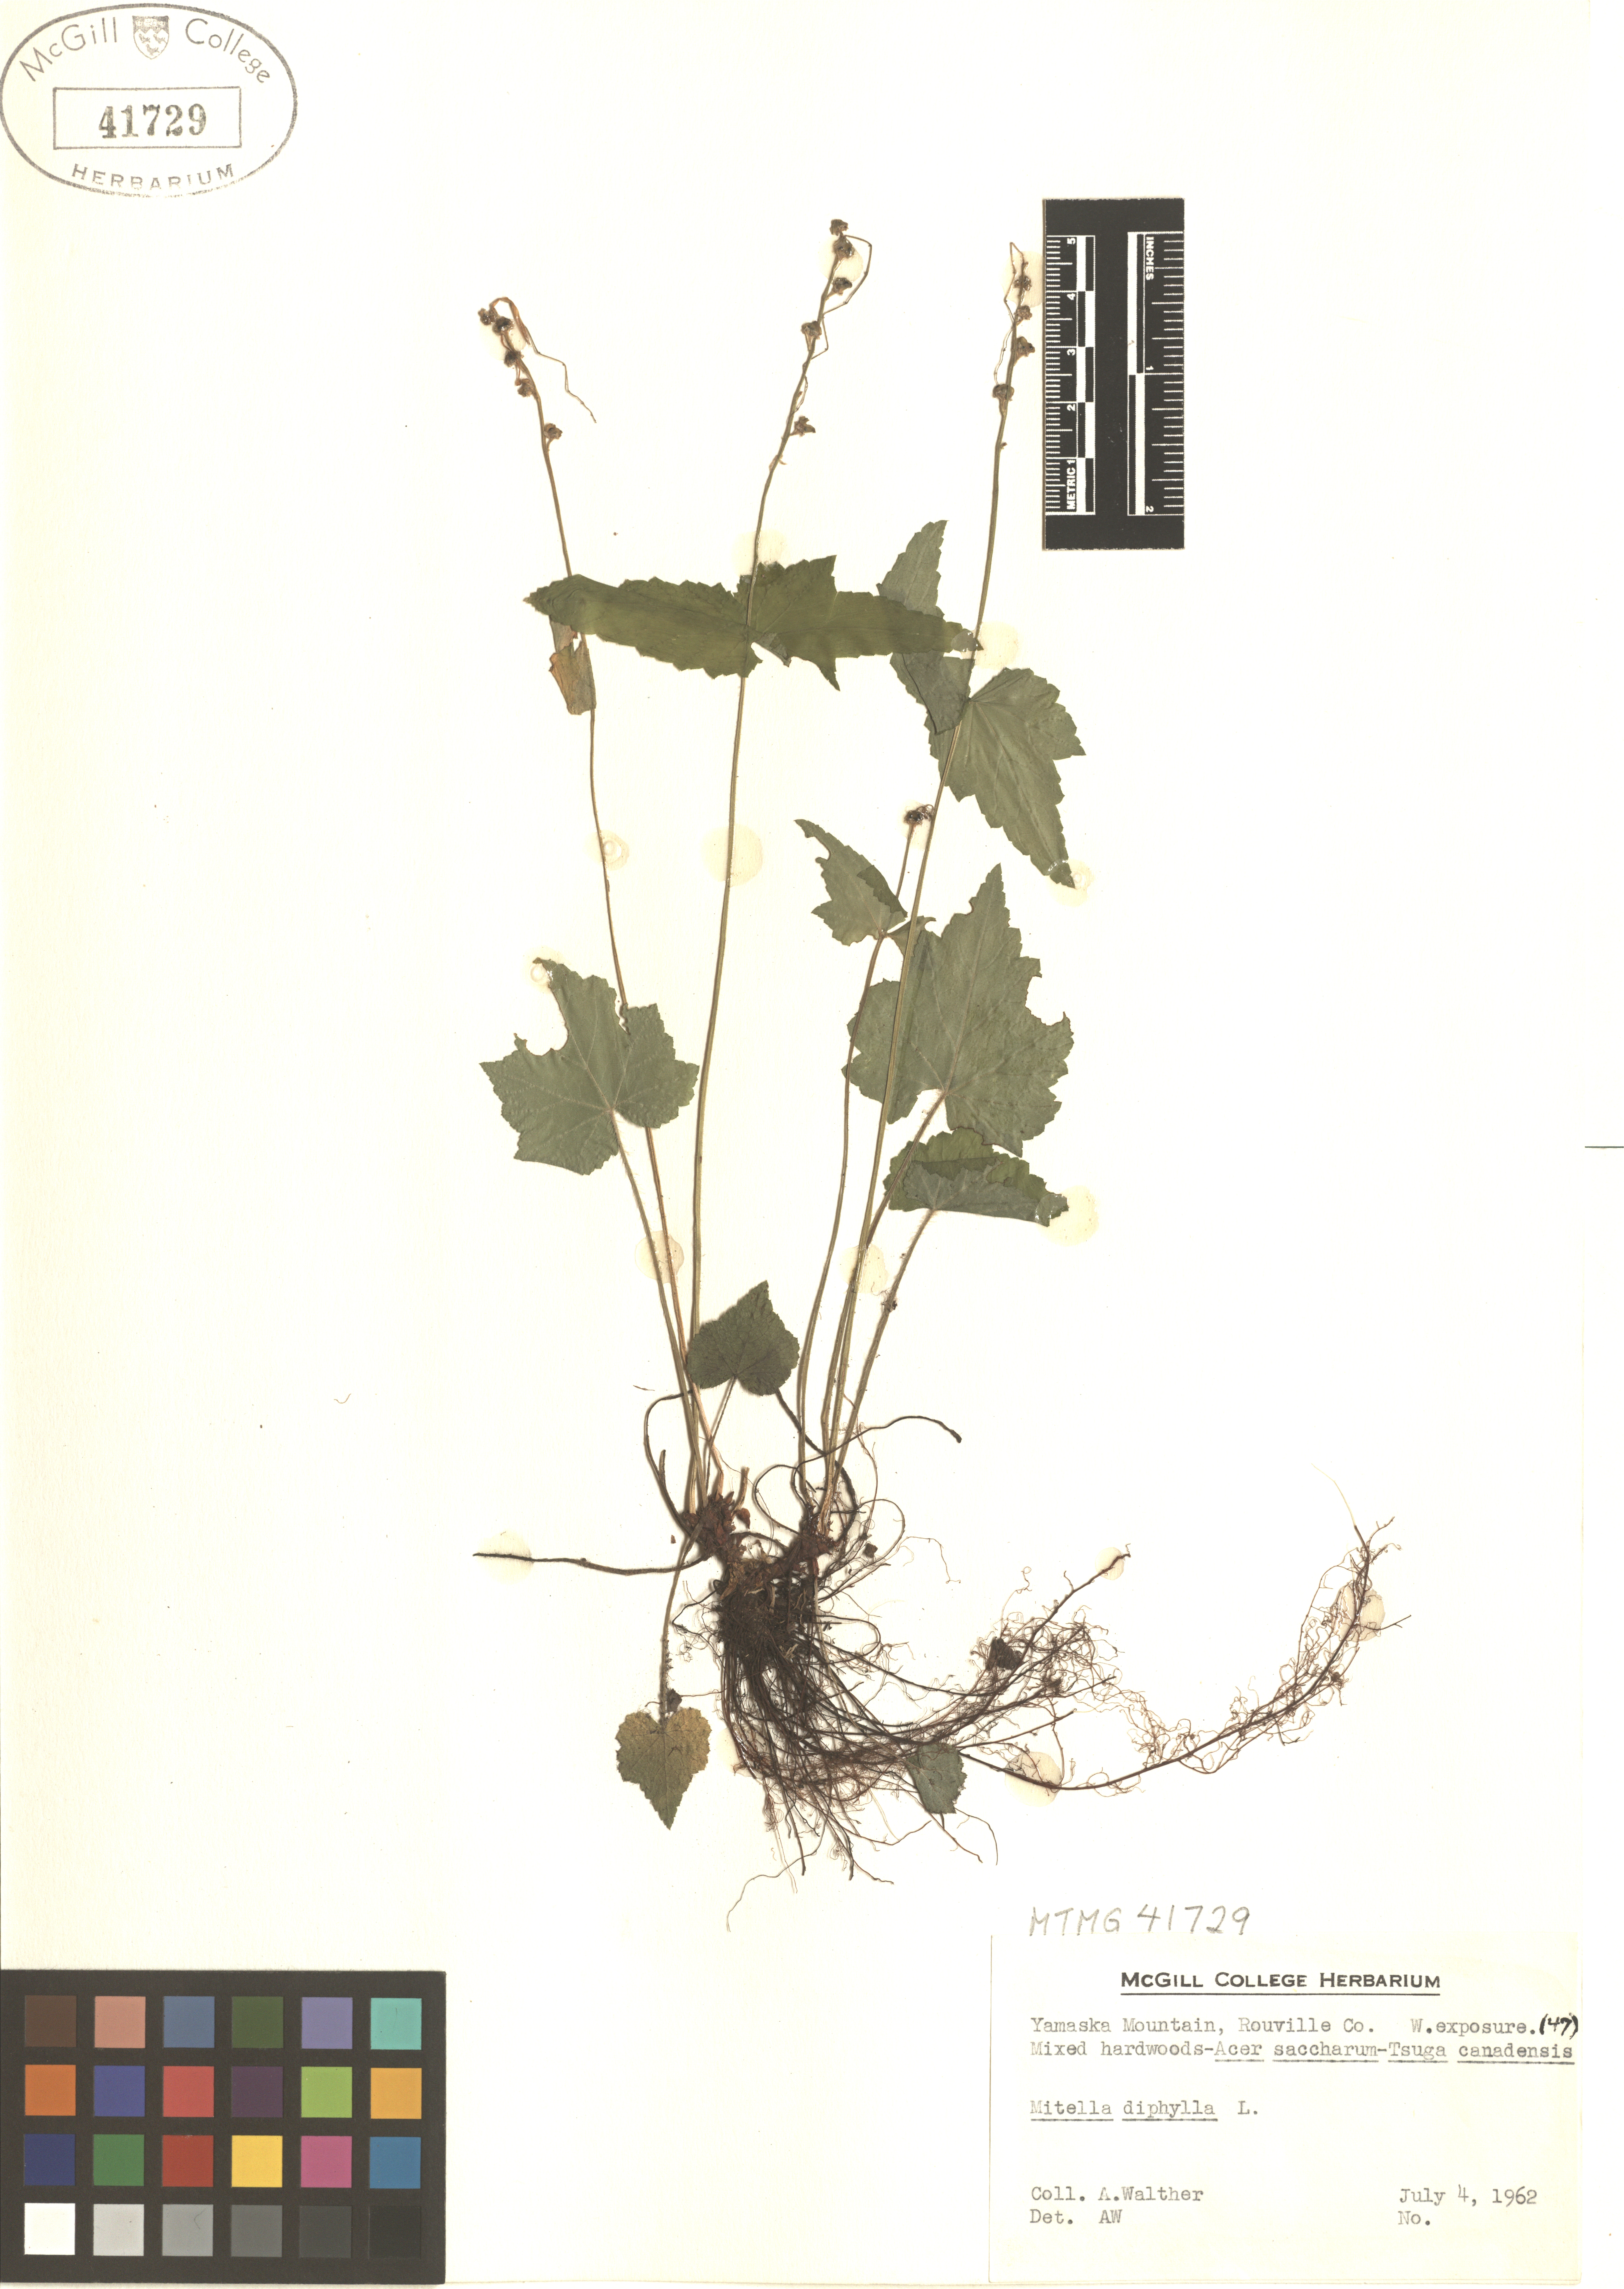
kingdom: Plantae
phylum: Tracheophyta
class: Magnoliopsida
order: Saxifragales
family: Saxifragaceae
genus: Mitella
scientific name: Mitella diphylla
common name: Coolwort
